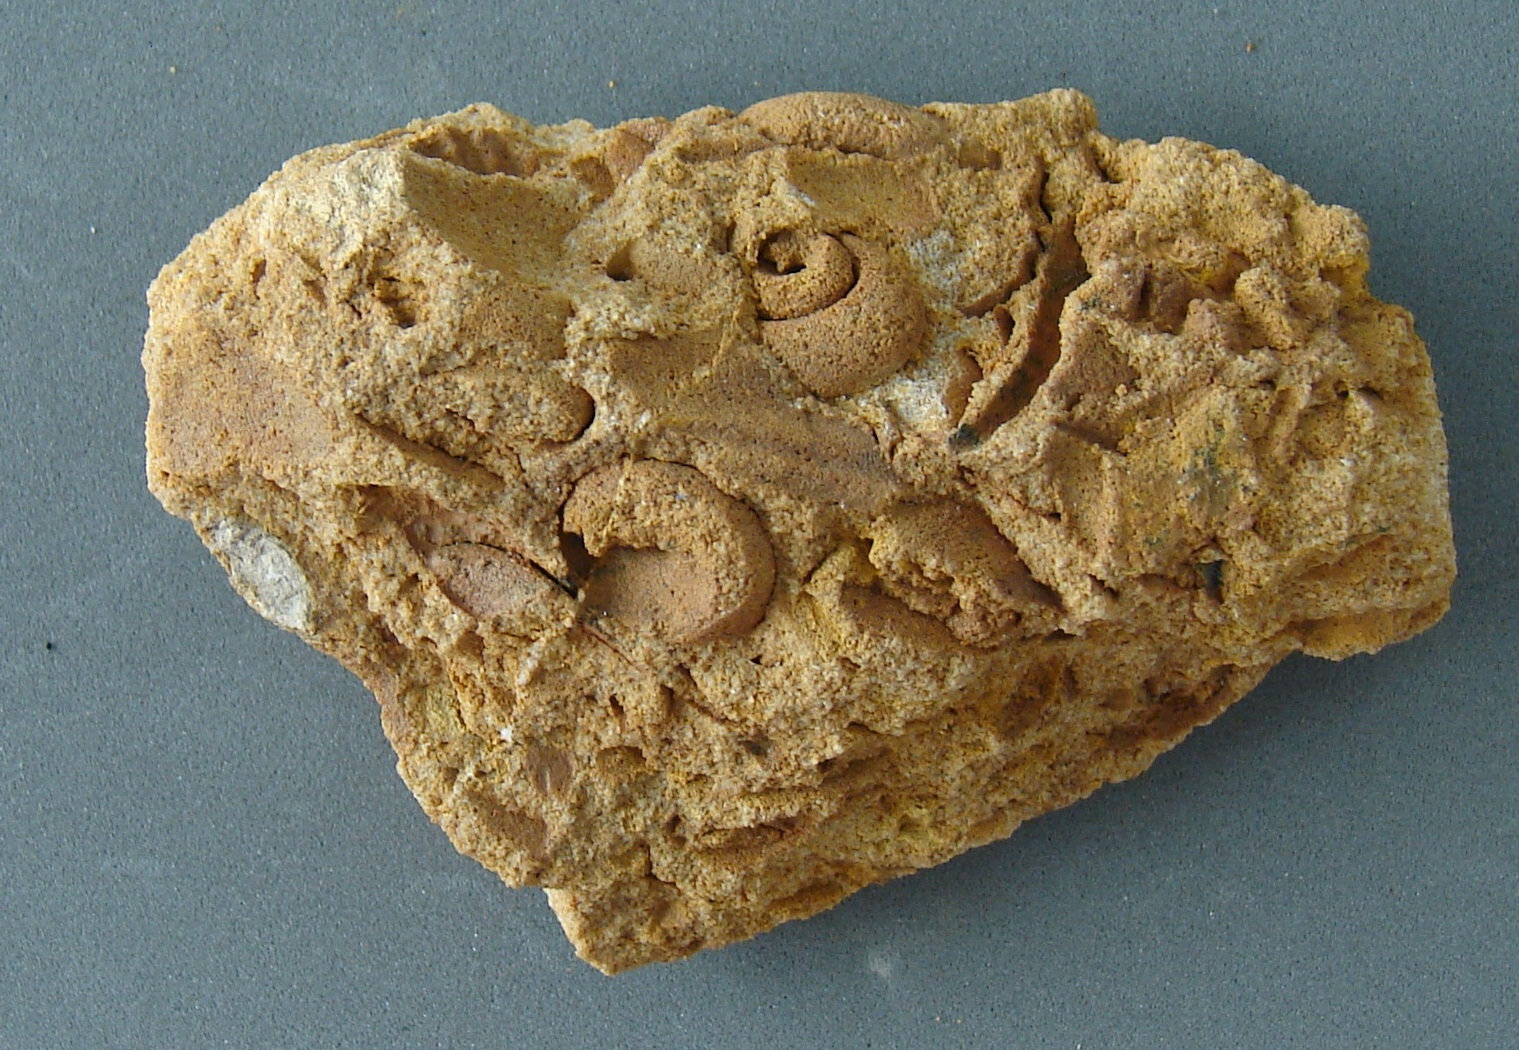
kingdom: Animalia
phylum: Mollusca
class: Gastropoda
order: Pleurotomariida
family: Gosseletinidae
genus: Euryzone
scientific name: Euryzone Helicites delphinuloides
